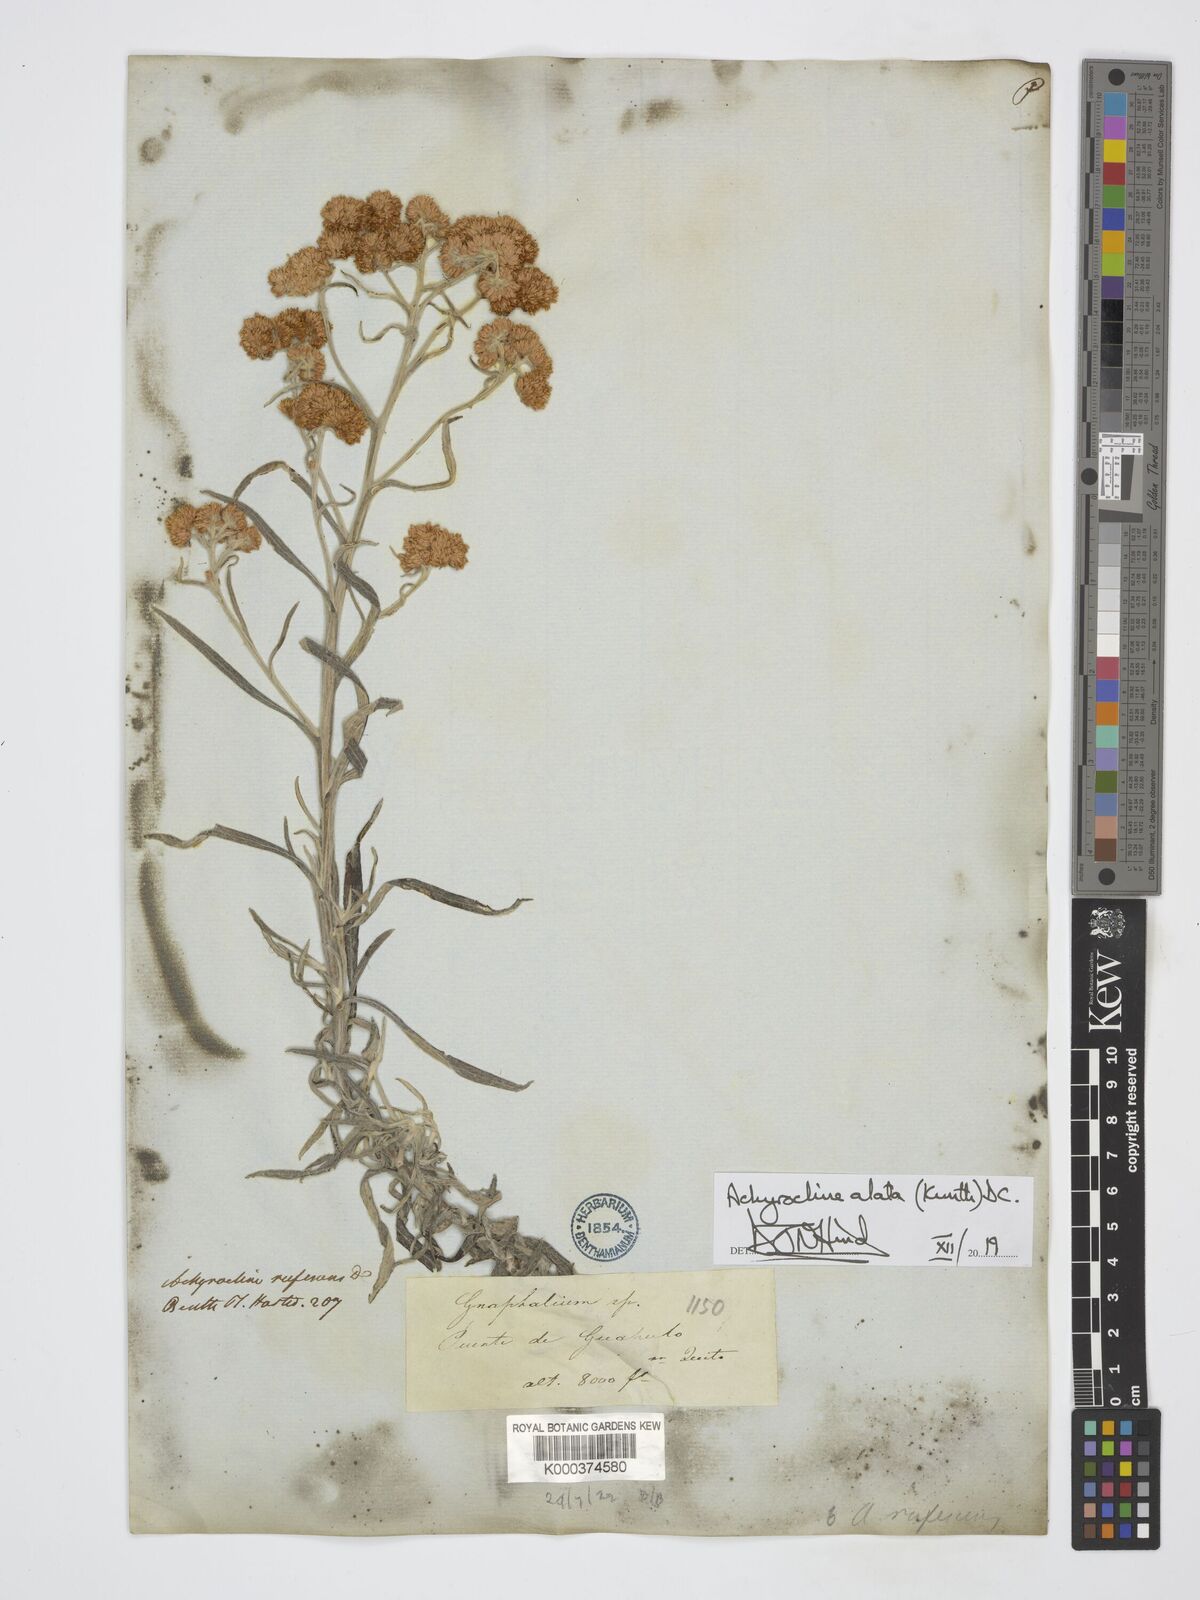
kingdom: Plantae
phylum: Tracheophyta
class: Magnoliopsida
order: Asterales
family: Asteraceae
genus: Achyrocline
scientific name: Achyrocline alata
